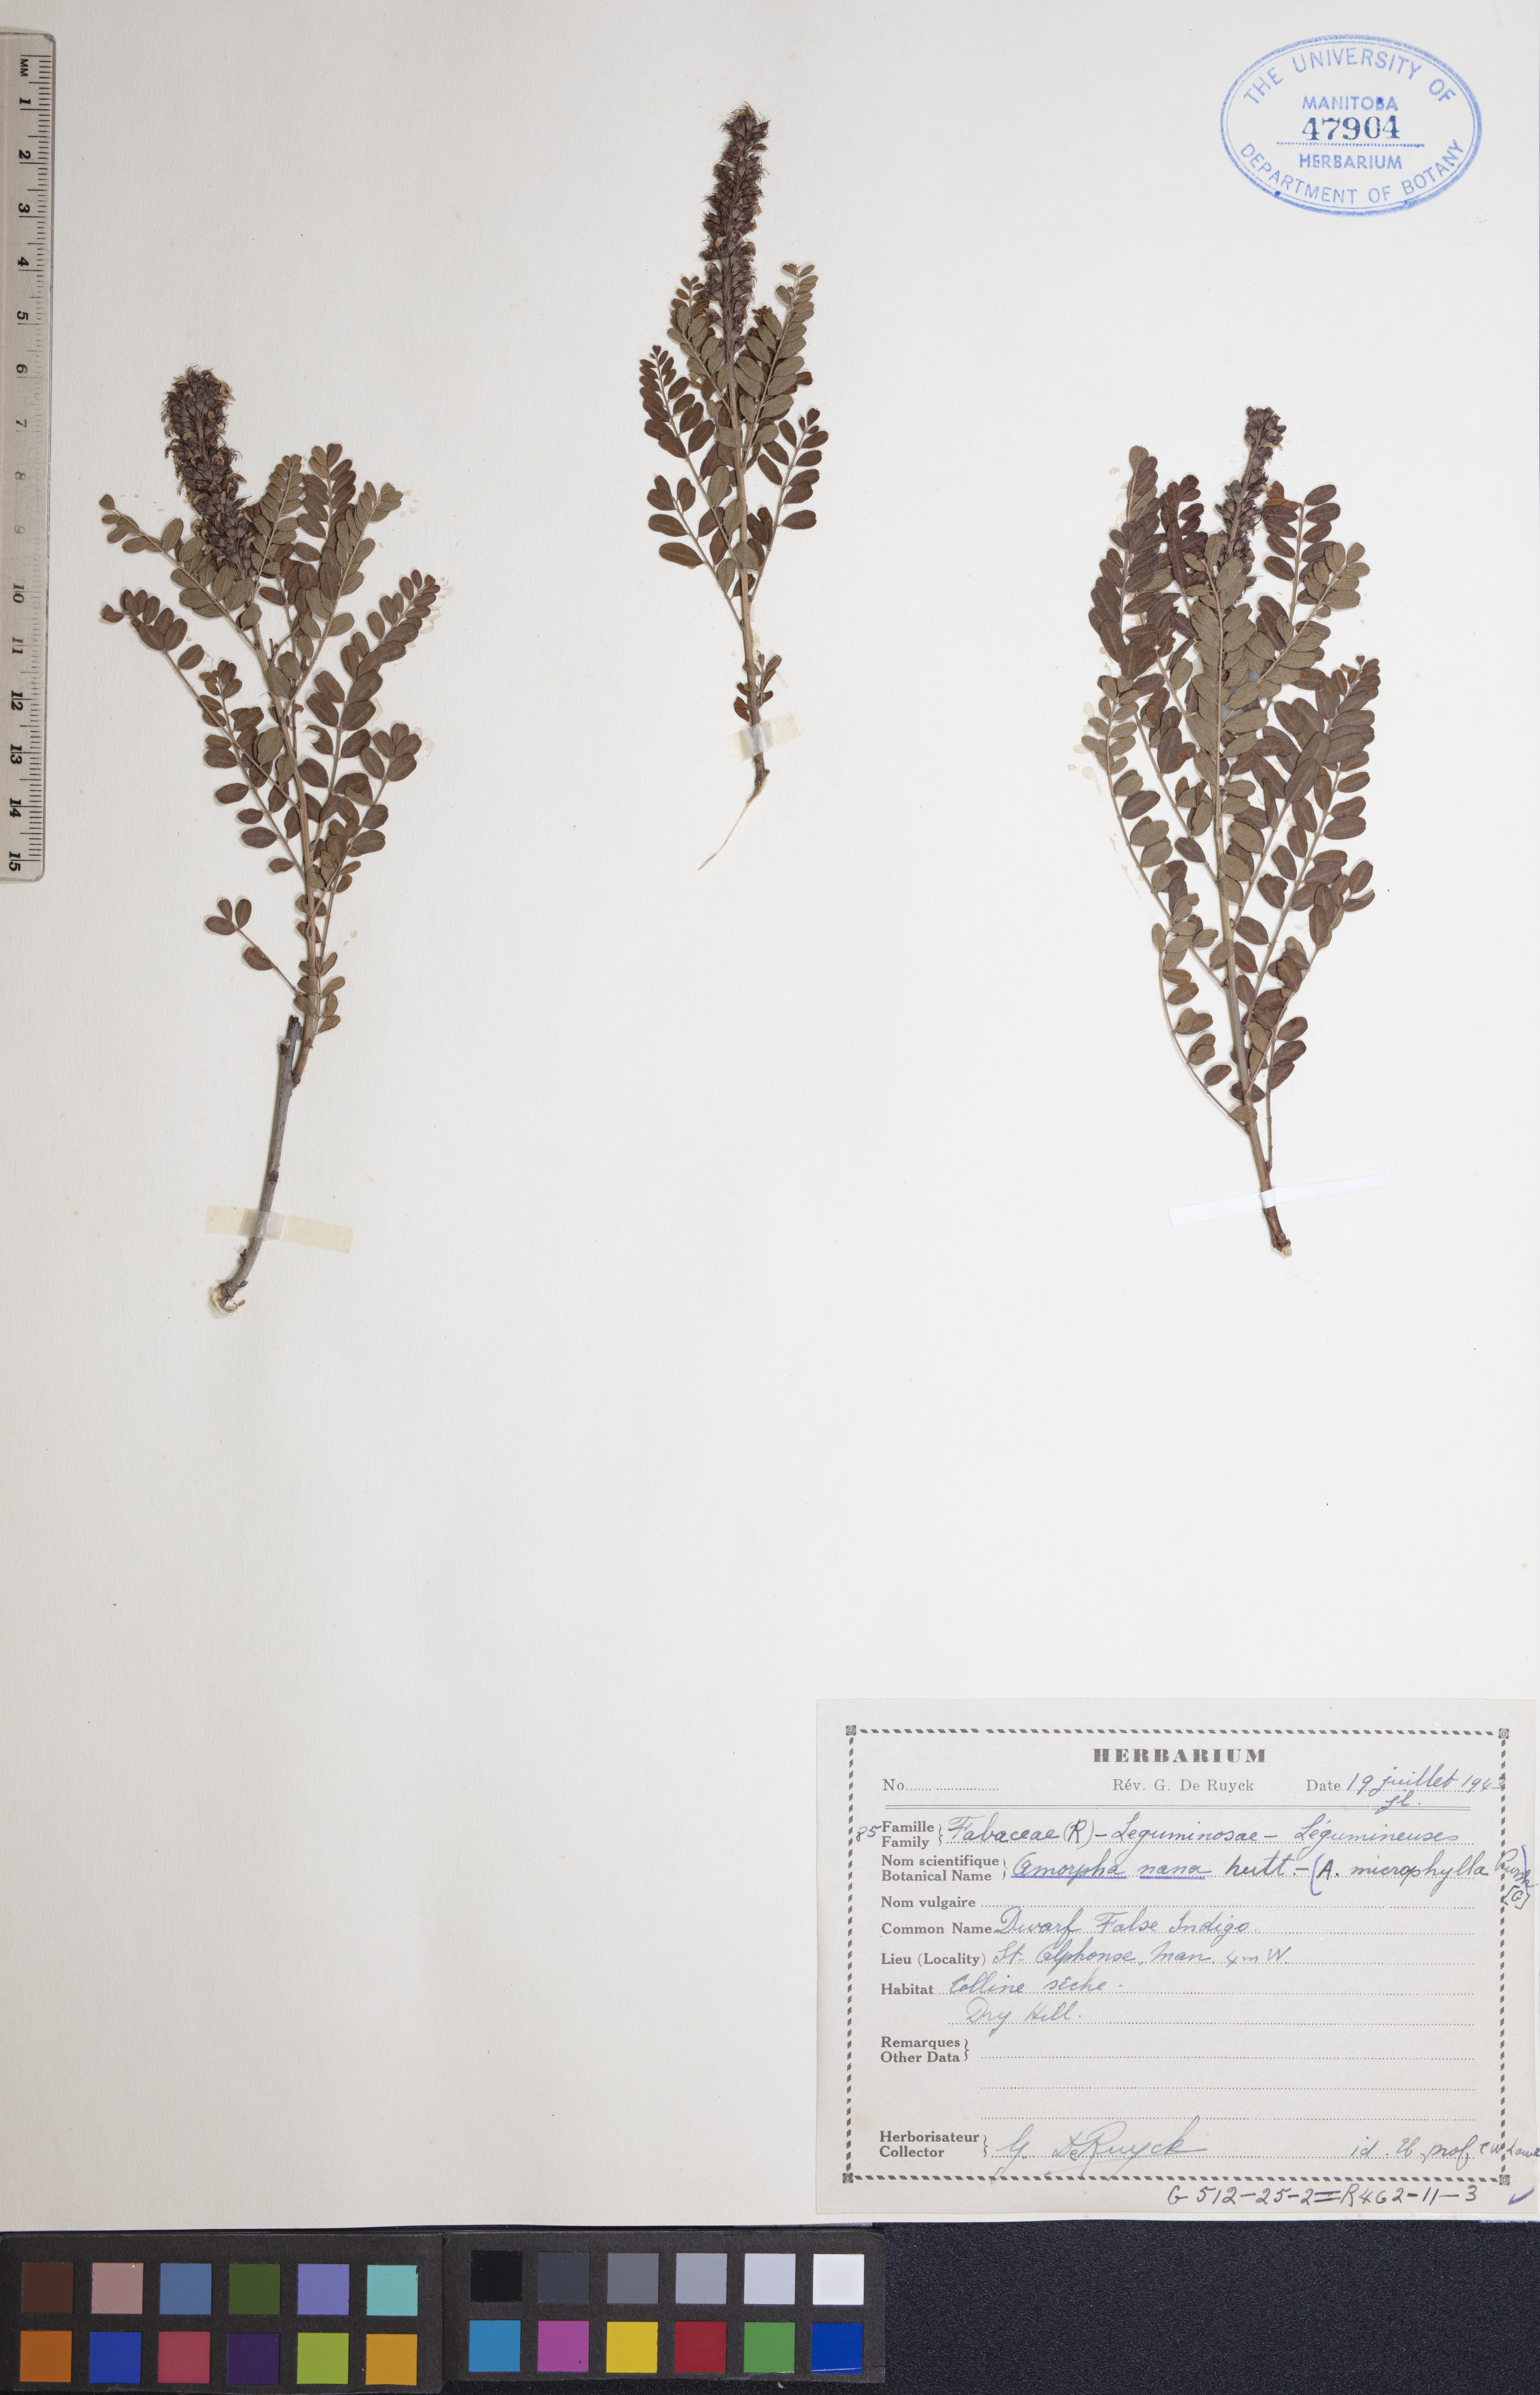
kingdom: Plantae
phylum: Tracheophyta
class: Magnoliopsida
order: Fabales
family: Fabaceae
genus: Amorpha
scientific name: Amorpha nana
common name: Fragrant false indigo
